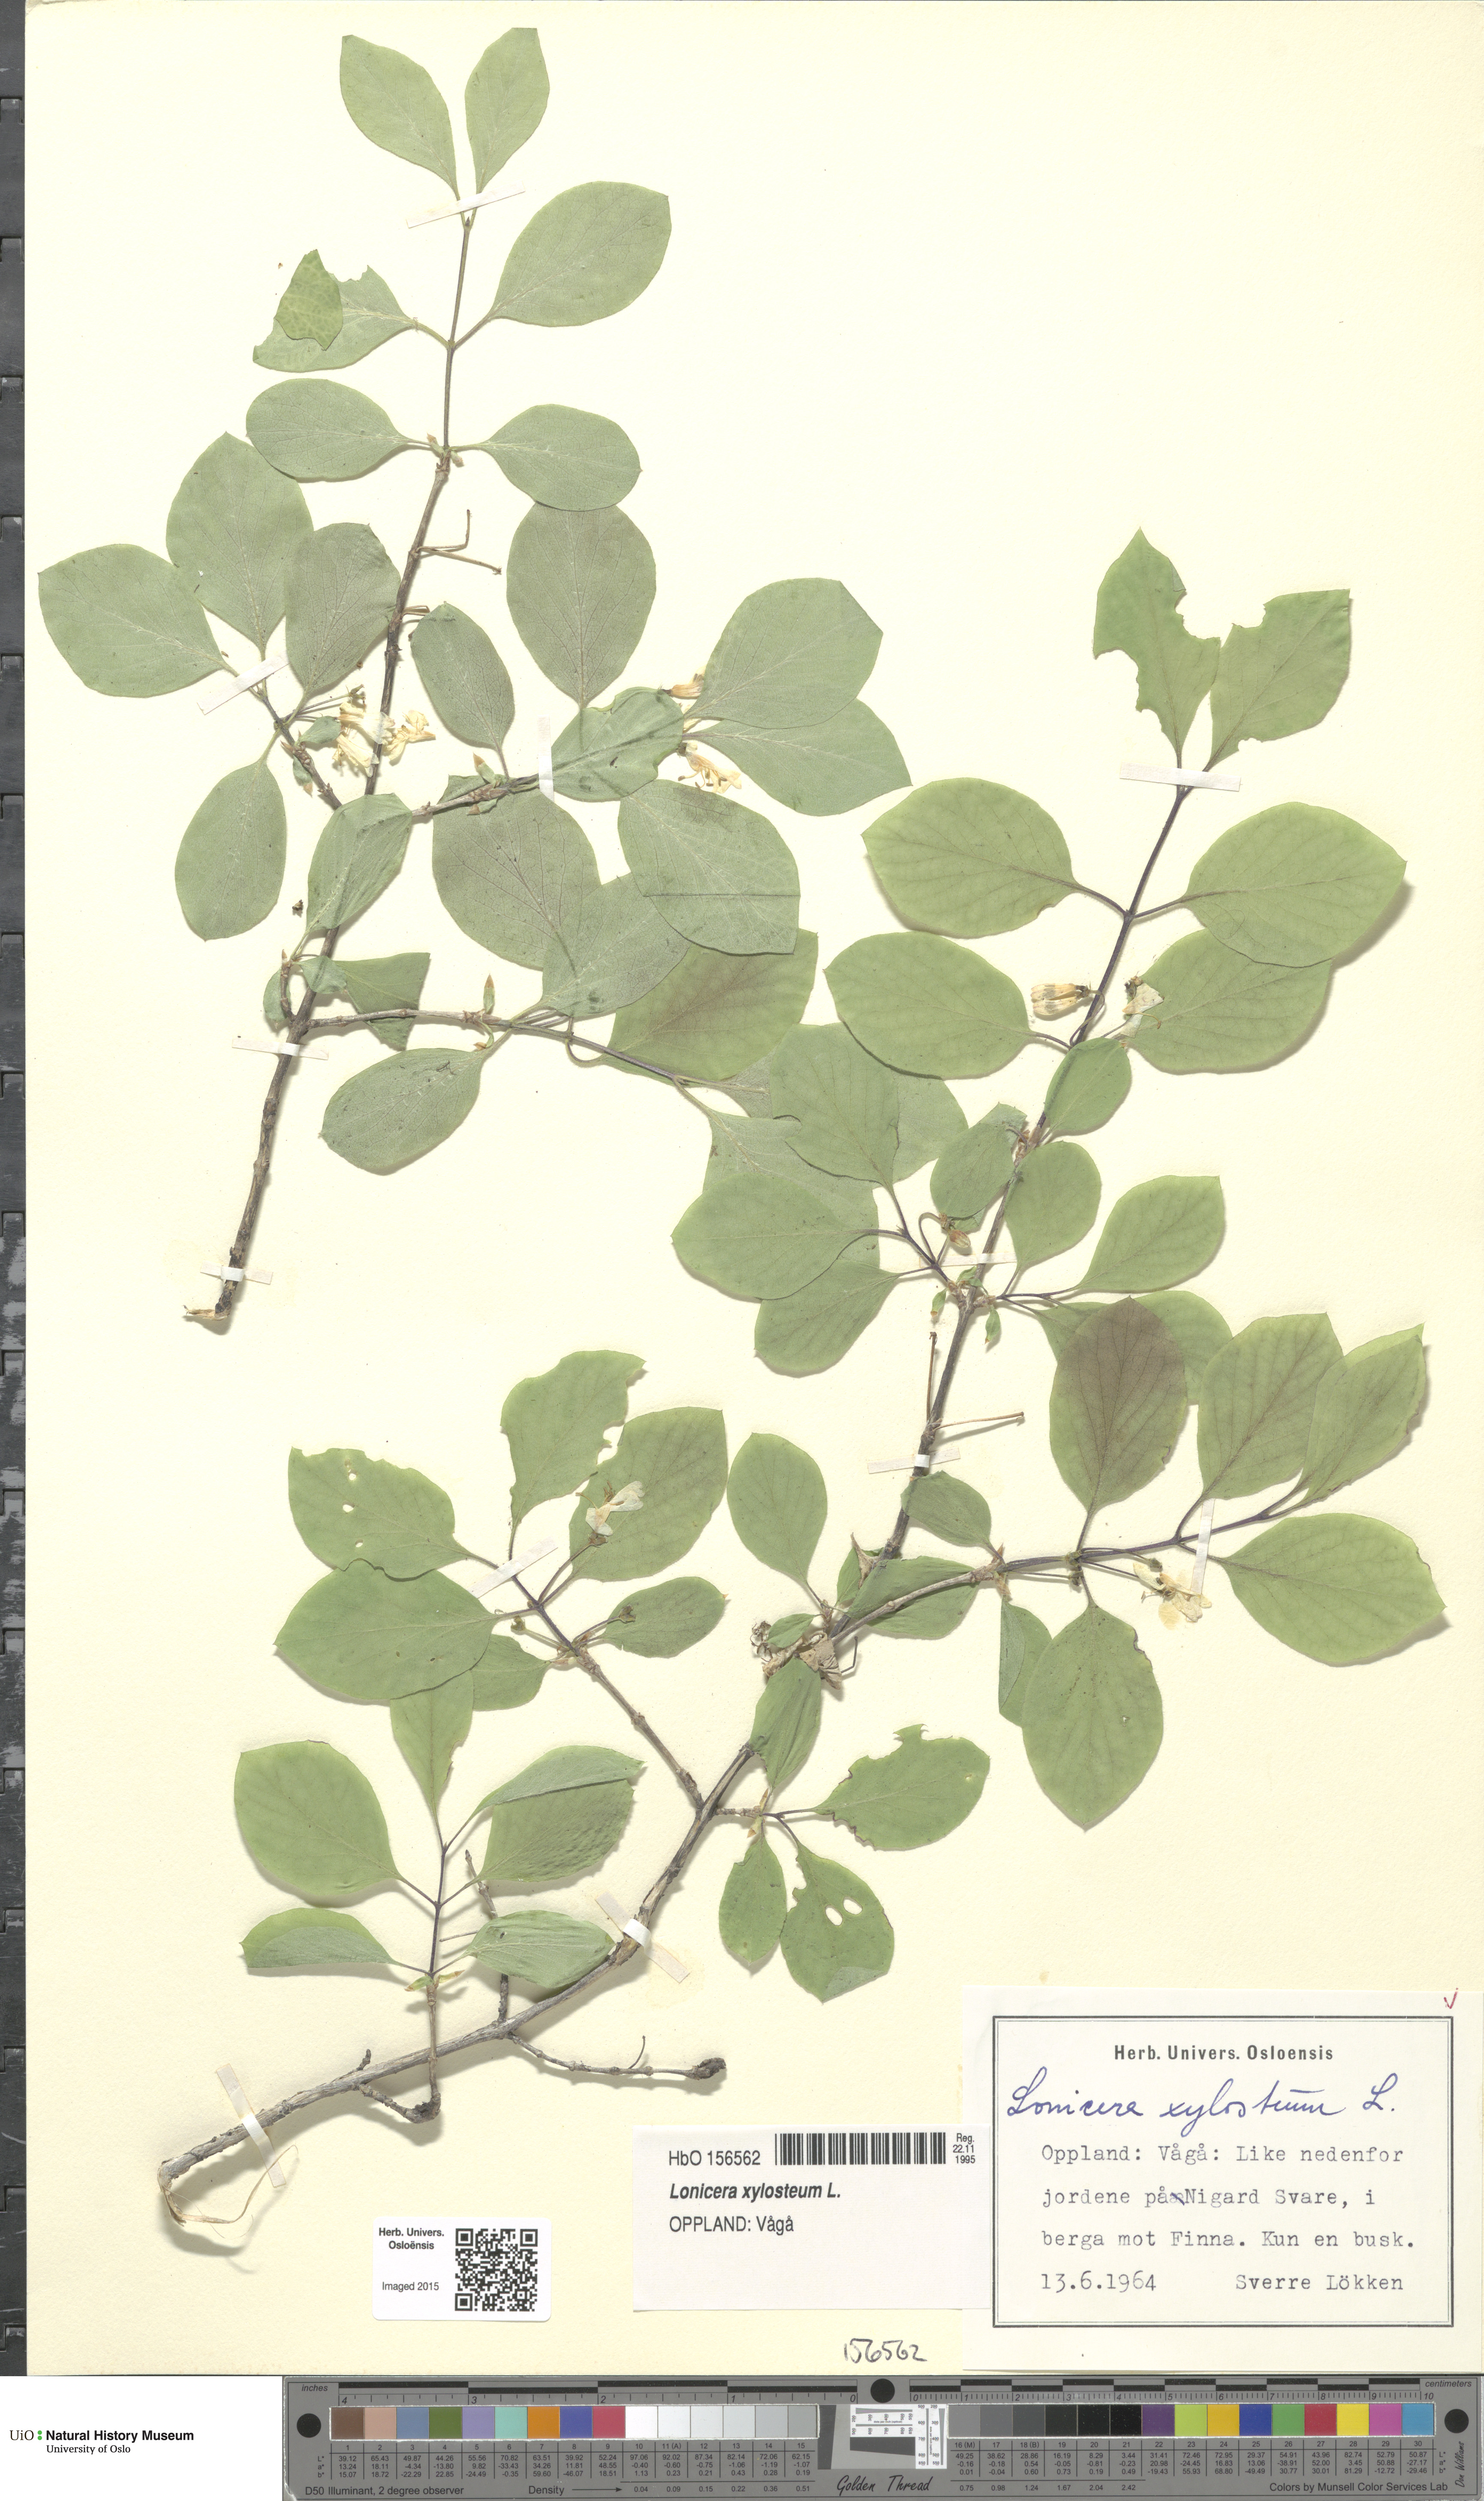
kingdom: Plantae
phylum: Tracheophyta
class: Magnoliopsida
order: Dipsacales
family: Caprifoliaceae
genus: Lonicera
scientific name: Lonicera xylosteum
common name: Fly honeysuckle
